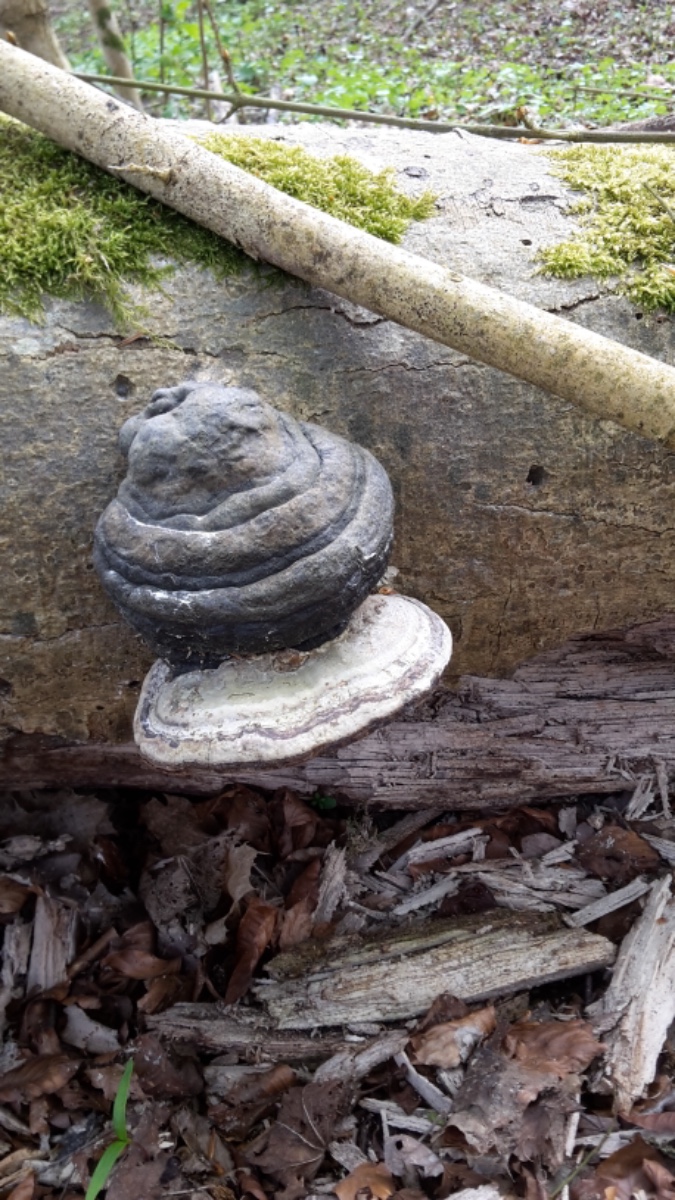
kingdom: Fungi
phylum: Basidiomycota
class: Agaricomycetes
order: Polyporales
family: Polyporaceae
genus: Fomes
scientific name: Fomes fomentarius
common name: tøndersvamp
